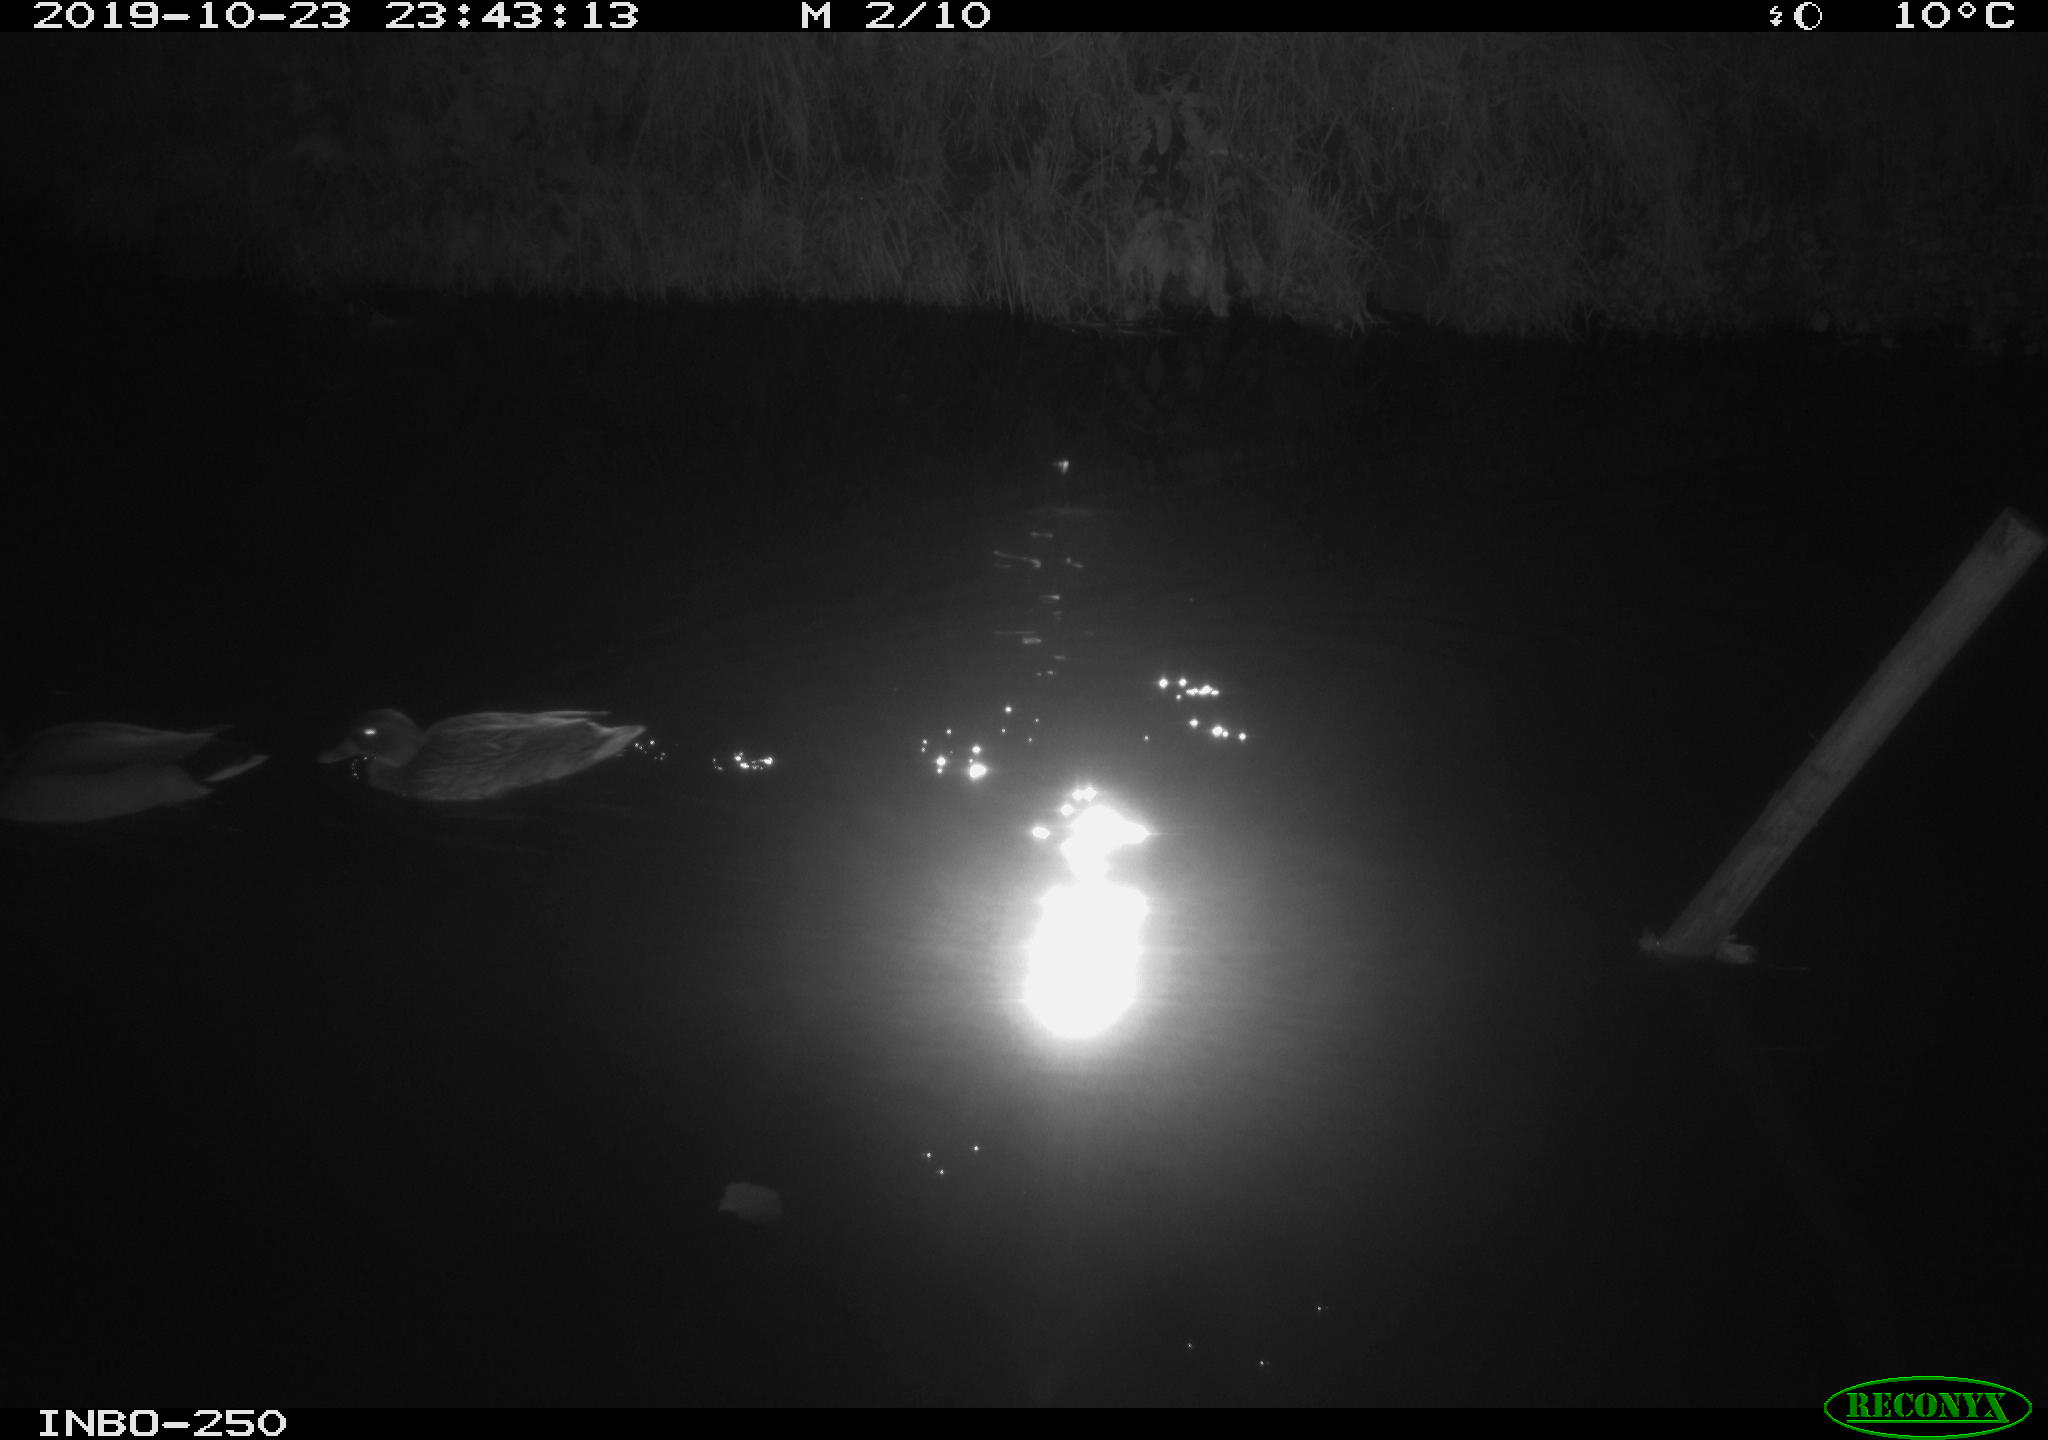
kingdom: Animalia
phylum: Chordata
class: Aves
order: Anseriformes
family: Anatidae
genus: Anas
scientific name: Anas platyrhynchos
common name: Mallard
